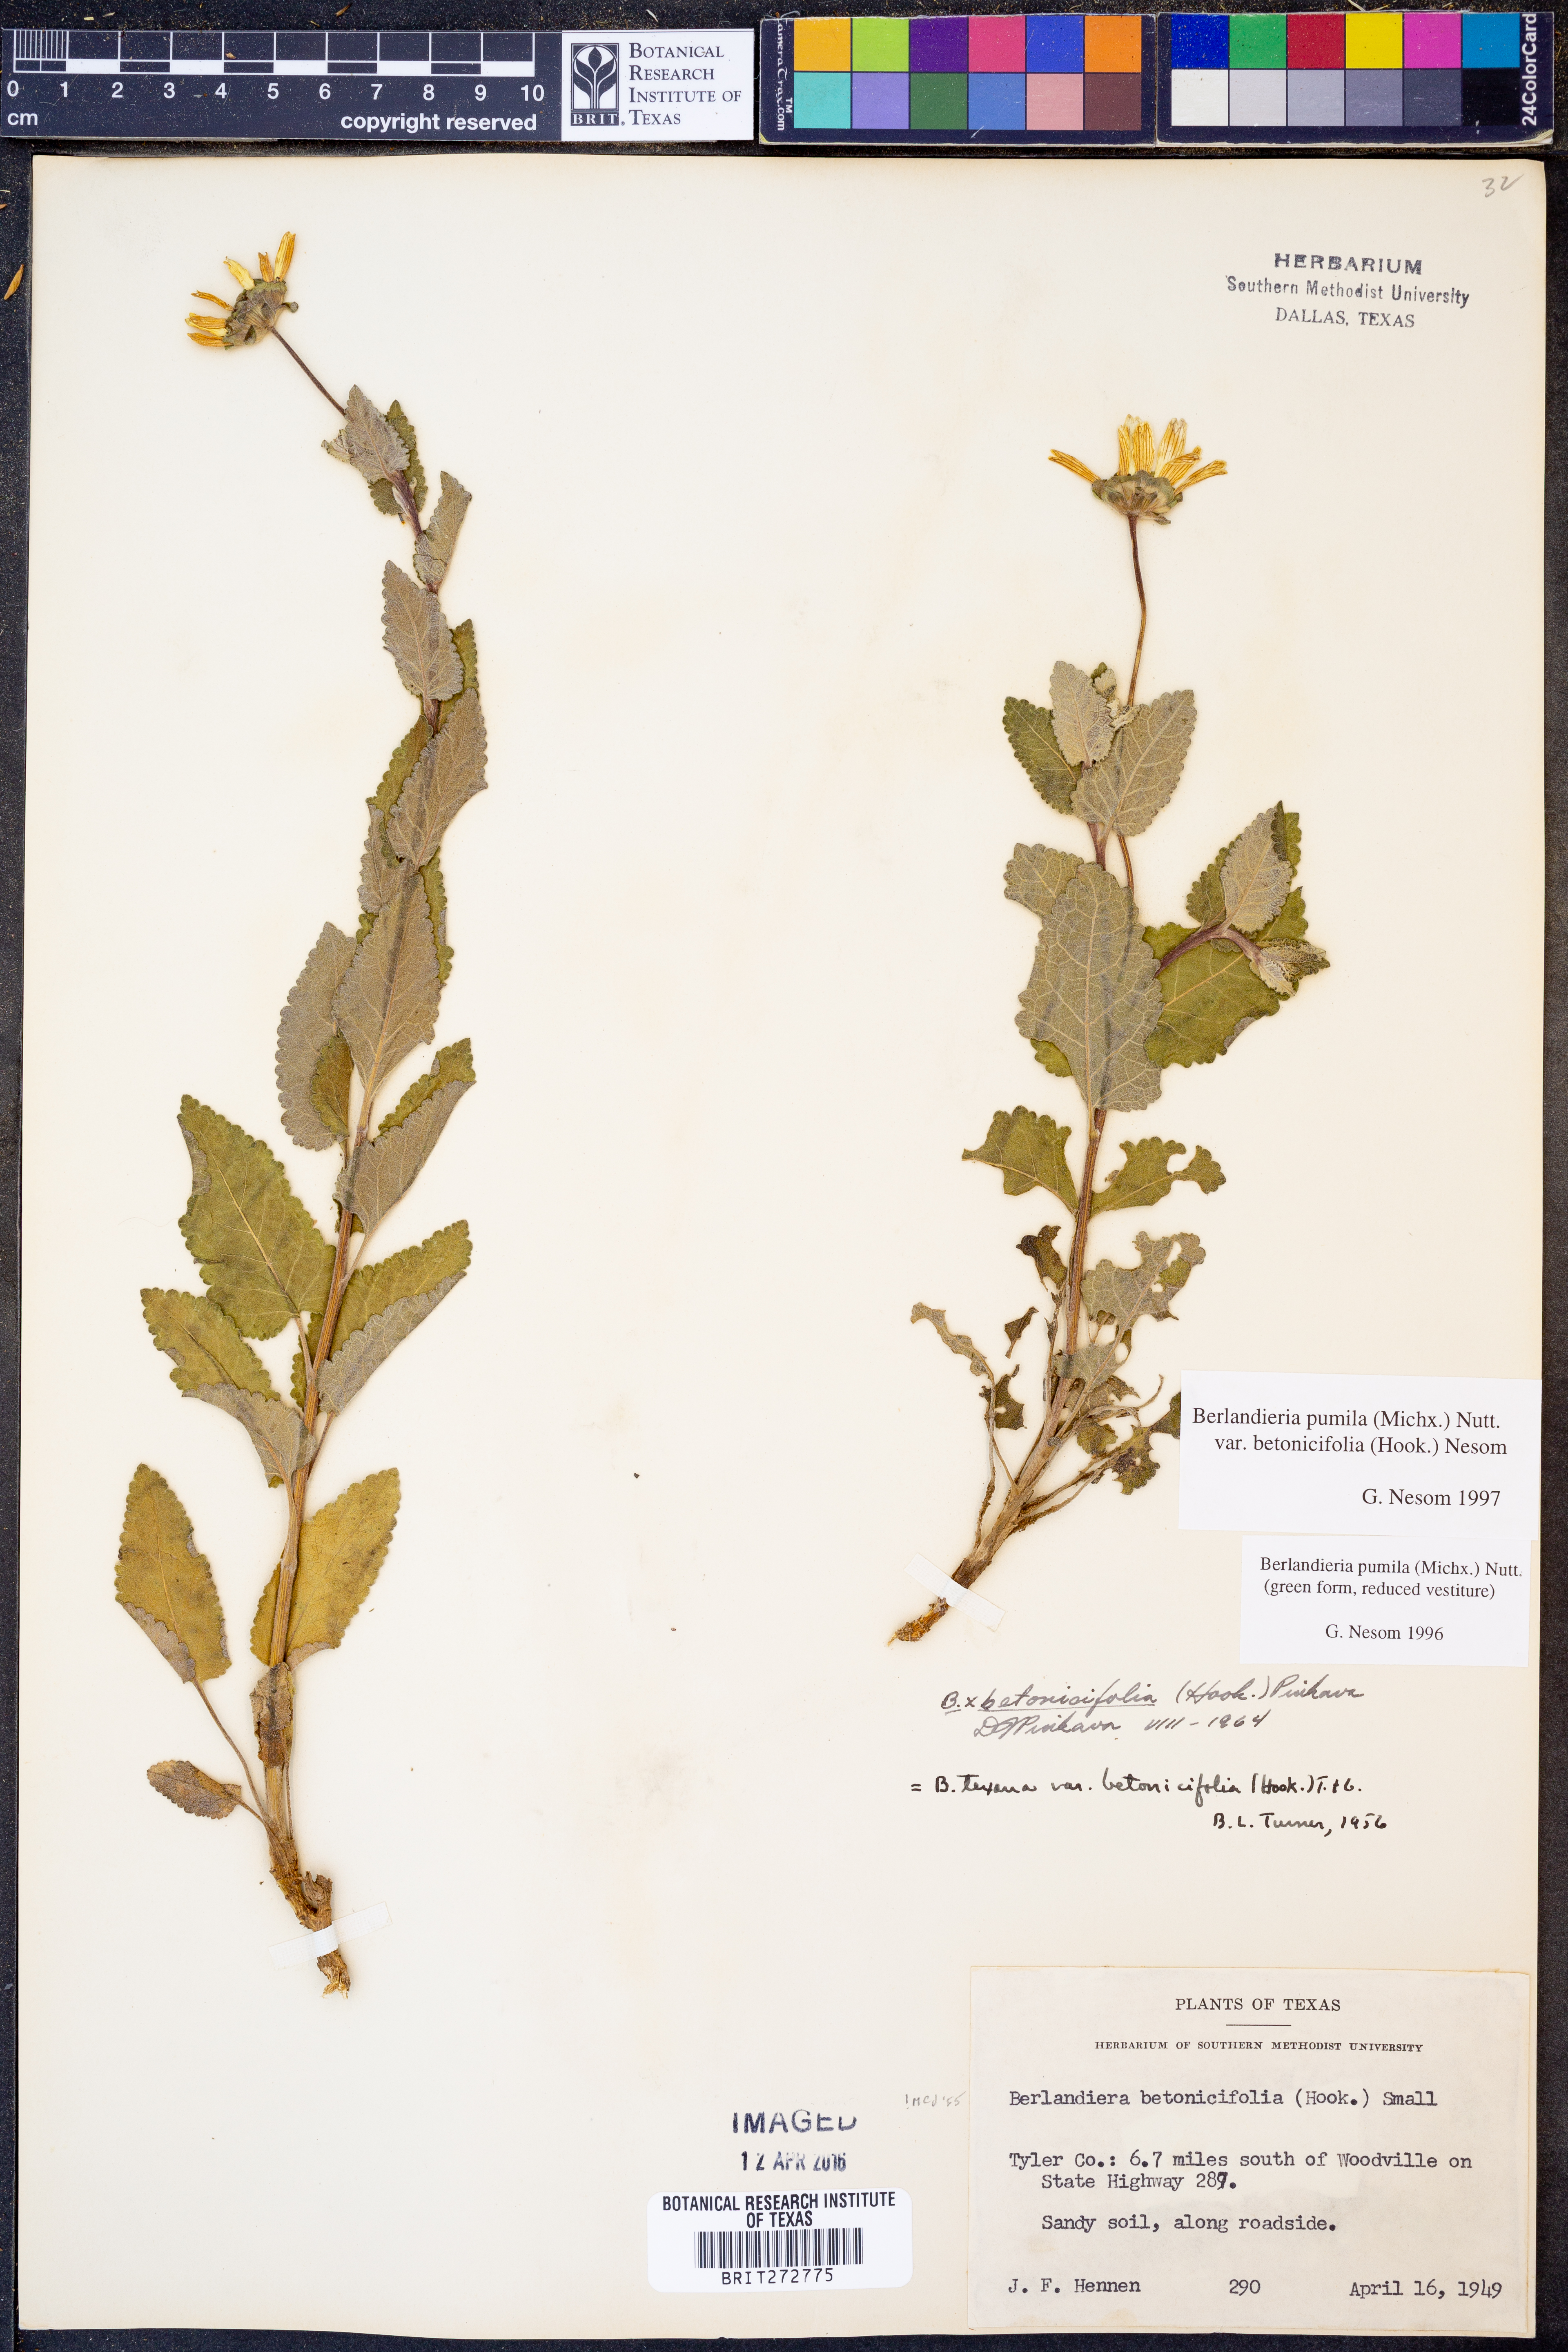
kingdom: Plantae
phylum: Tracheophyta
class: Magnoliopsida
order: Asterales
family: Asteraceae
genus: Berlandiera
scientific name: Berlandiera pumila
